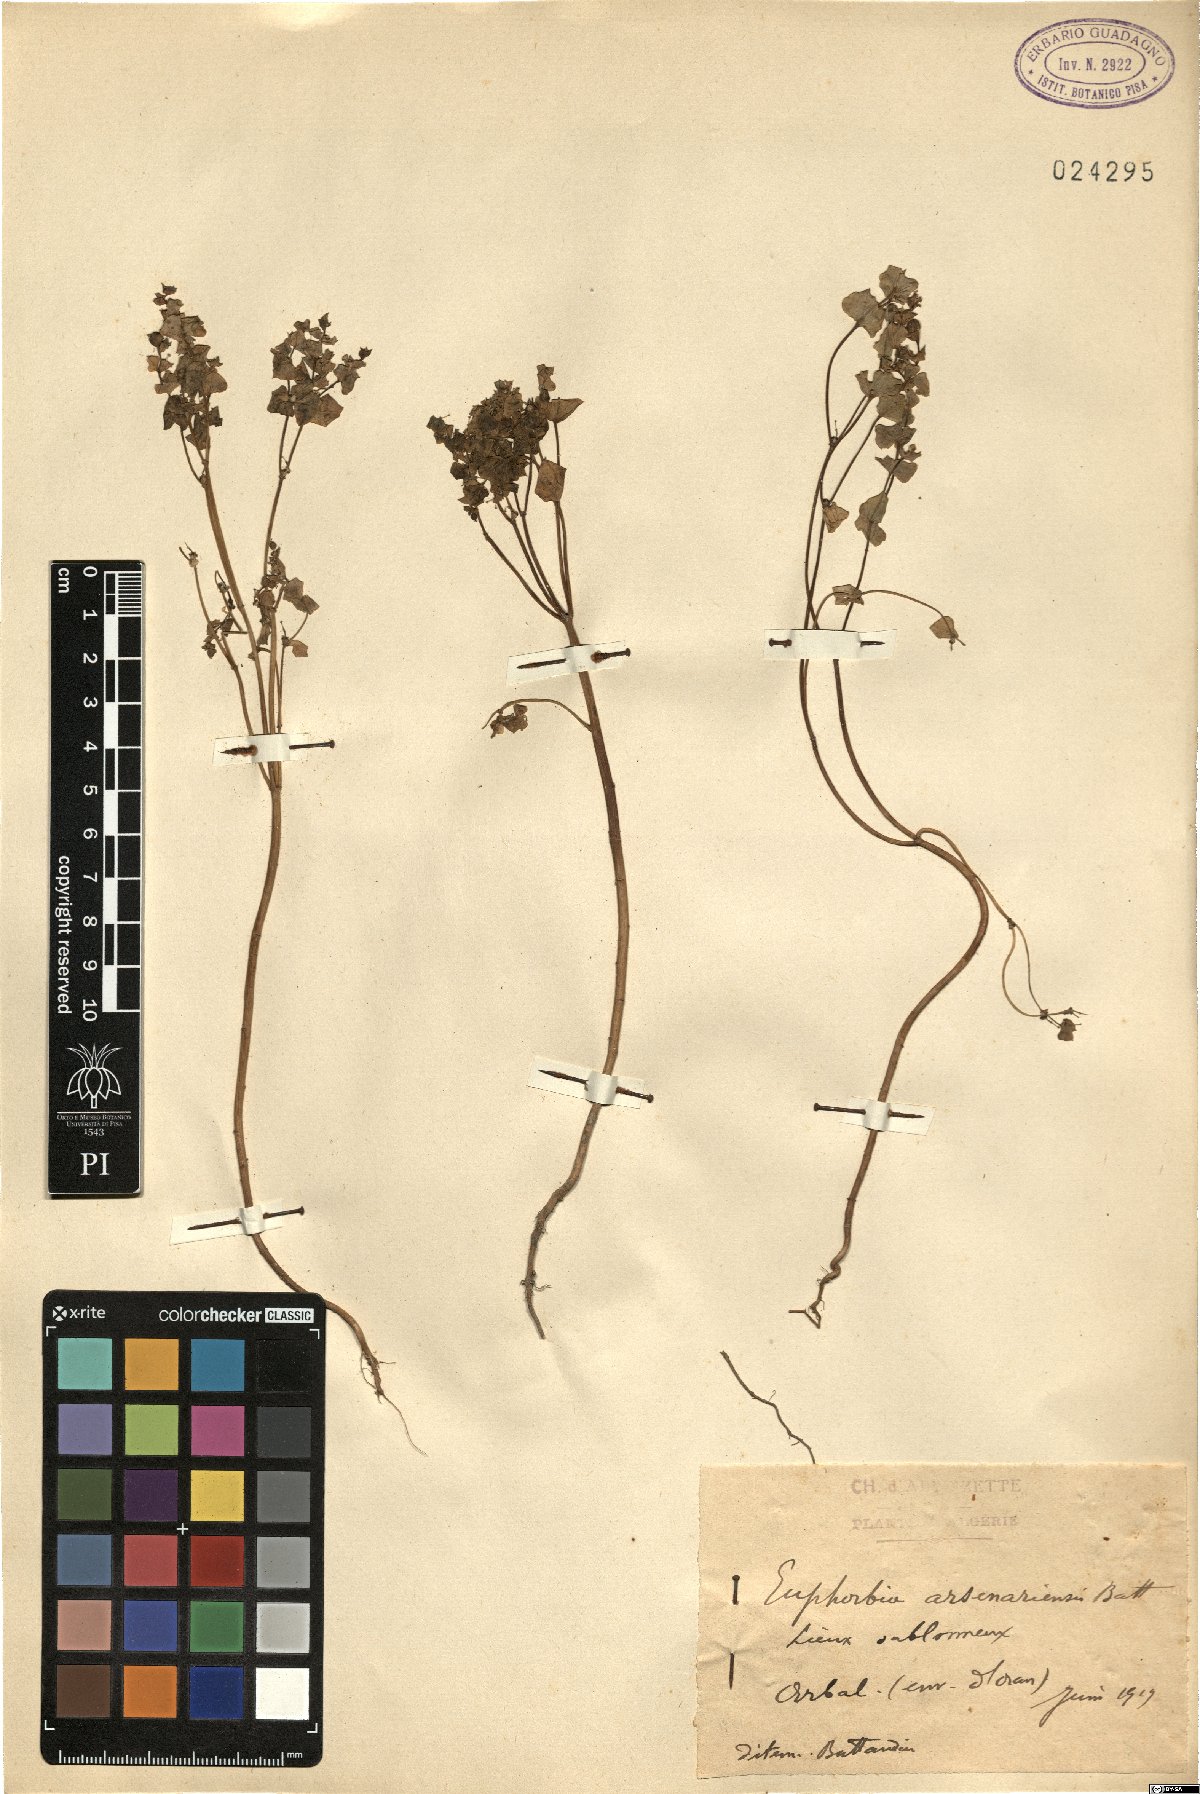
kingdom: Plantae
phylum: Tracheophyta
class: Magnoliopsida
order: Malpighiales
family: Euphorbiaceae
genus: Euphorbia
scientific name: Euphorbia medicaginea
